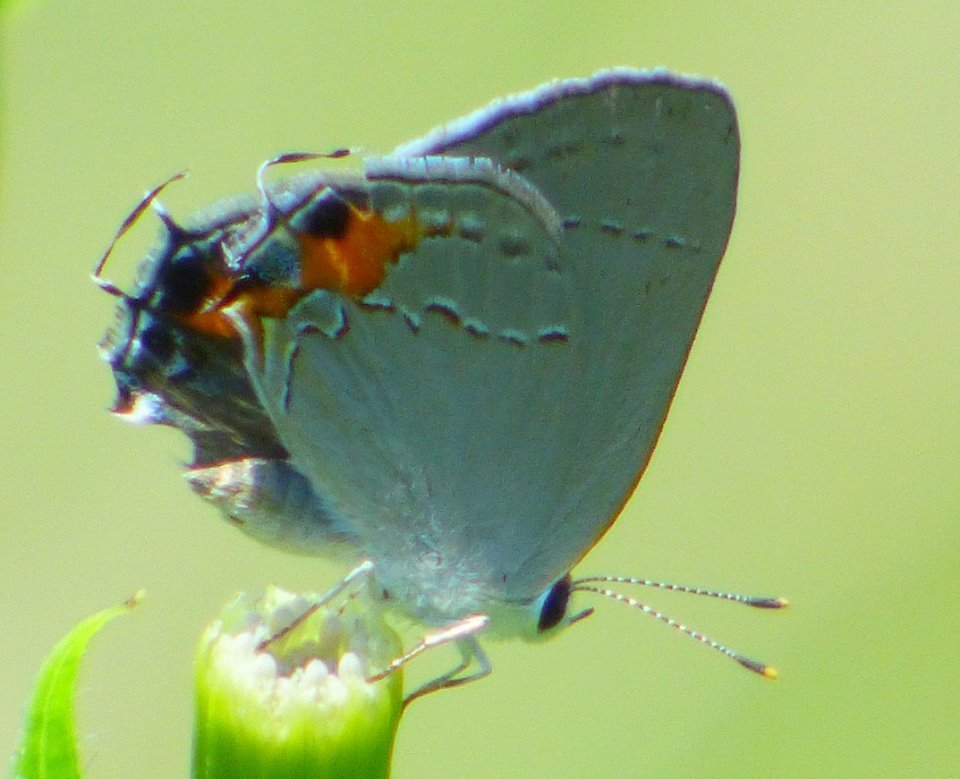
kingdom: Animalia
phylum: Arthropoda
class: Insecta
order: Lepidoptera
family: Lycaenidae
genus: Strymon
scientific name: Strymon melinus
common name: Gray Hairstreak
